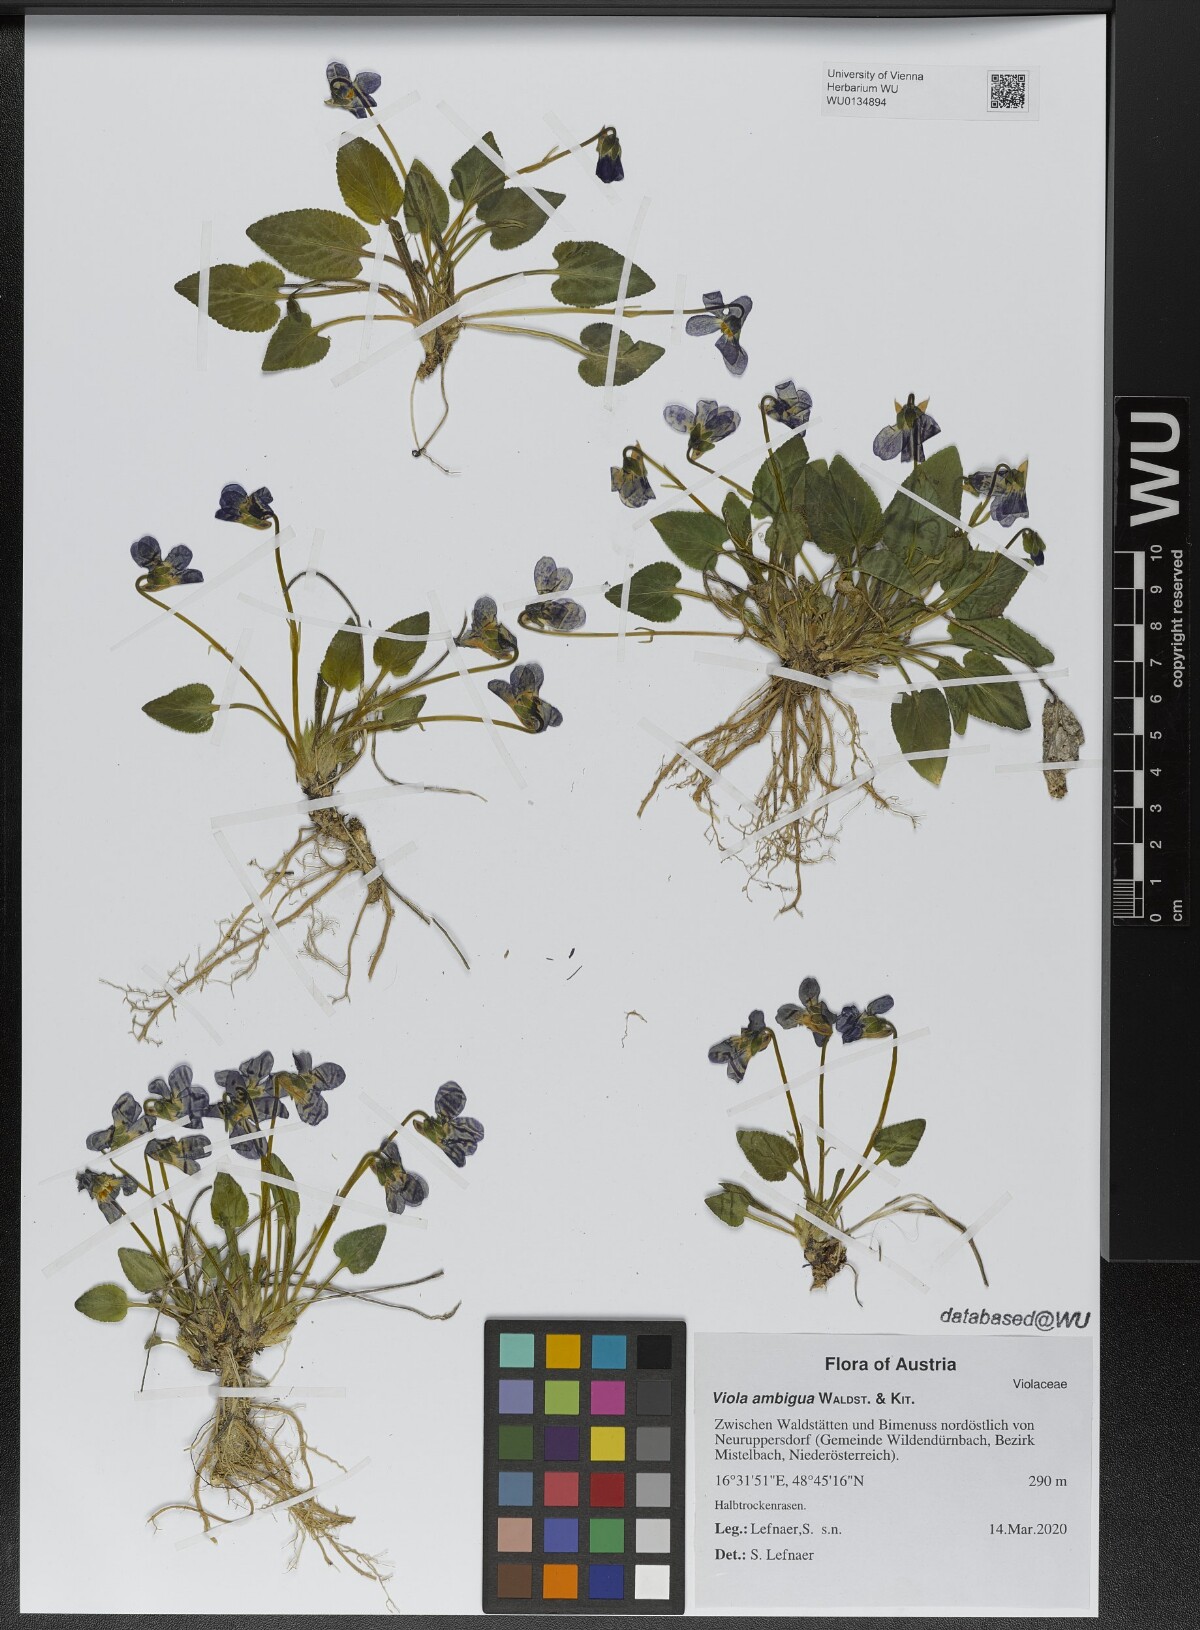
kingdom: Plantae
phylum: Tracheophyta
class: Magnoliopsida
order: Malpighiales
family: Violaceae
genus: Viola
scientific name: Viola ambigua
